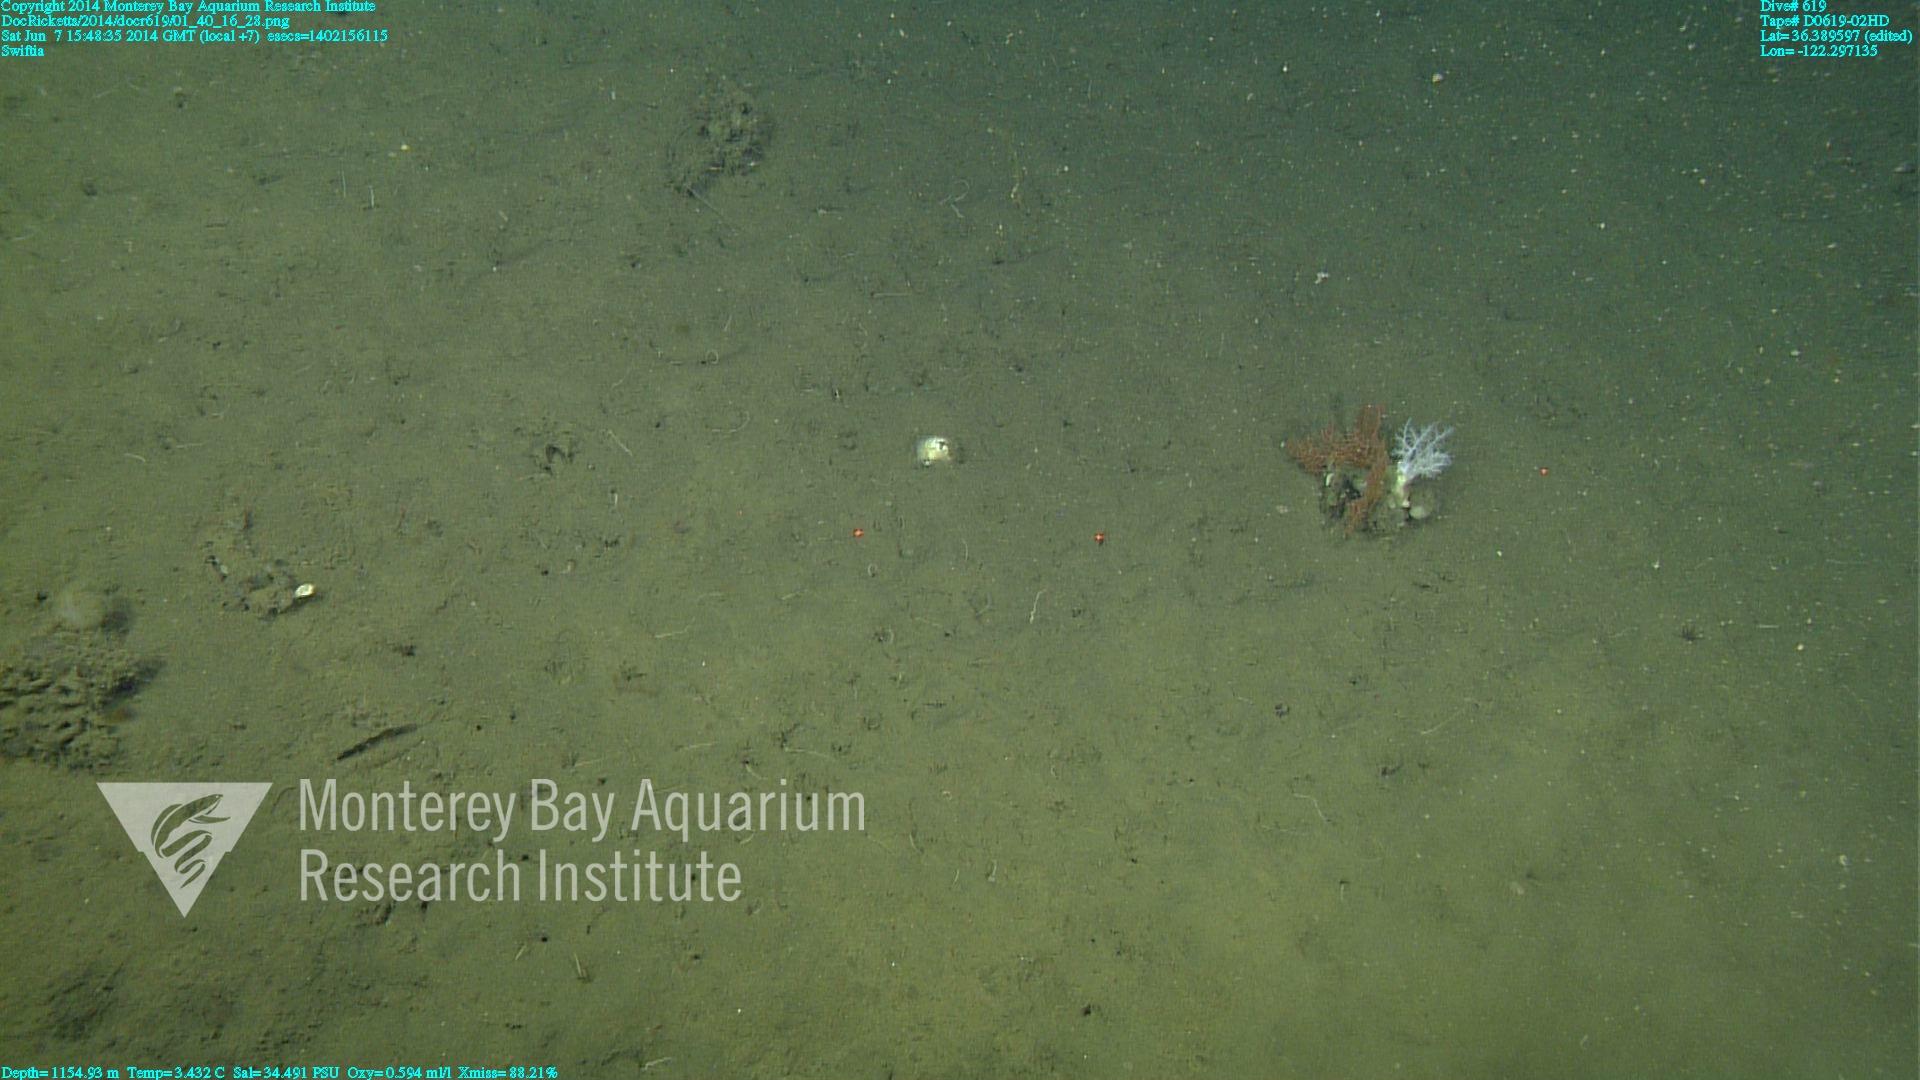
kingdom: Animalia
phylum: Cnidaria
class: Anthozoa
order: Malacalcyonacea
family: Gorgoniidae
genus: Callistephanus
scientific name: Callistephanus kofoidi
